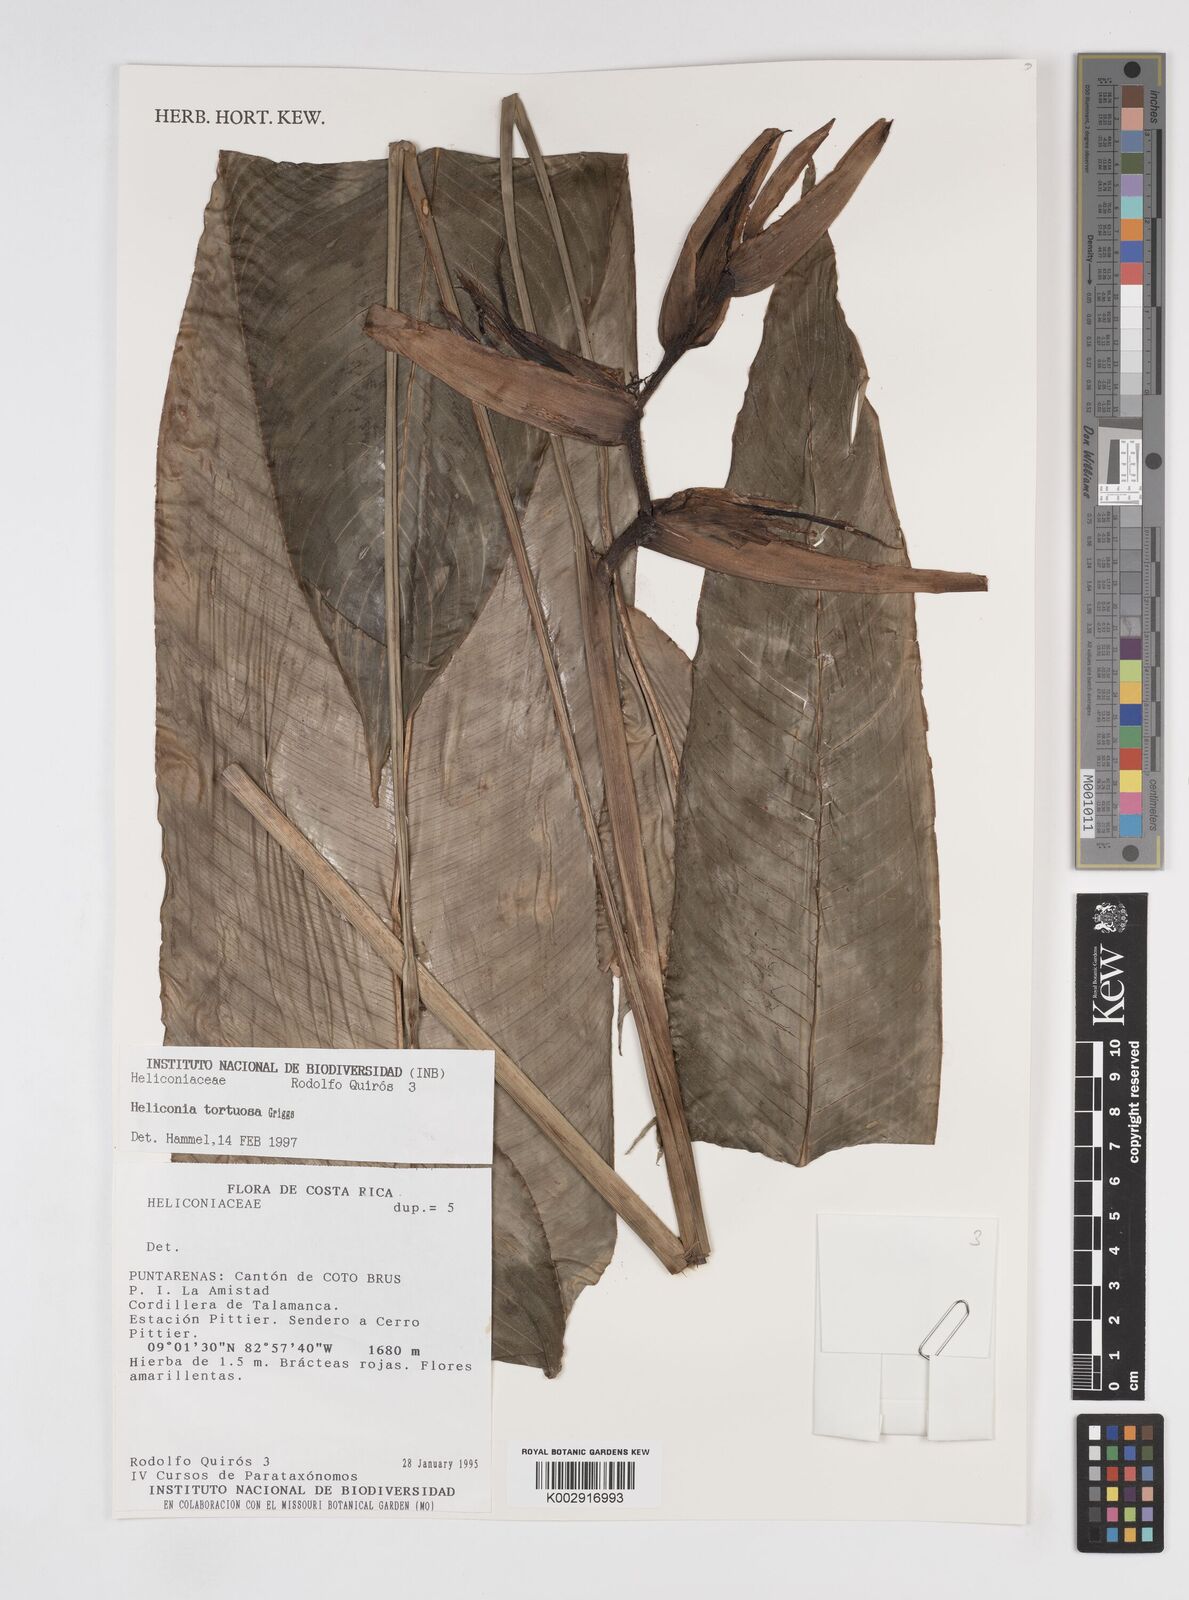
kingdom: Plantae
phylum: Tracheophyta
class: Liliopsida
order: Zingiberales
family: Heliconiaceae
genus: Heliconia
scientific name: Heliconia tortuosa
